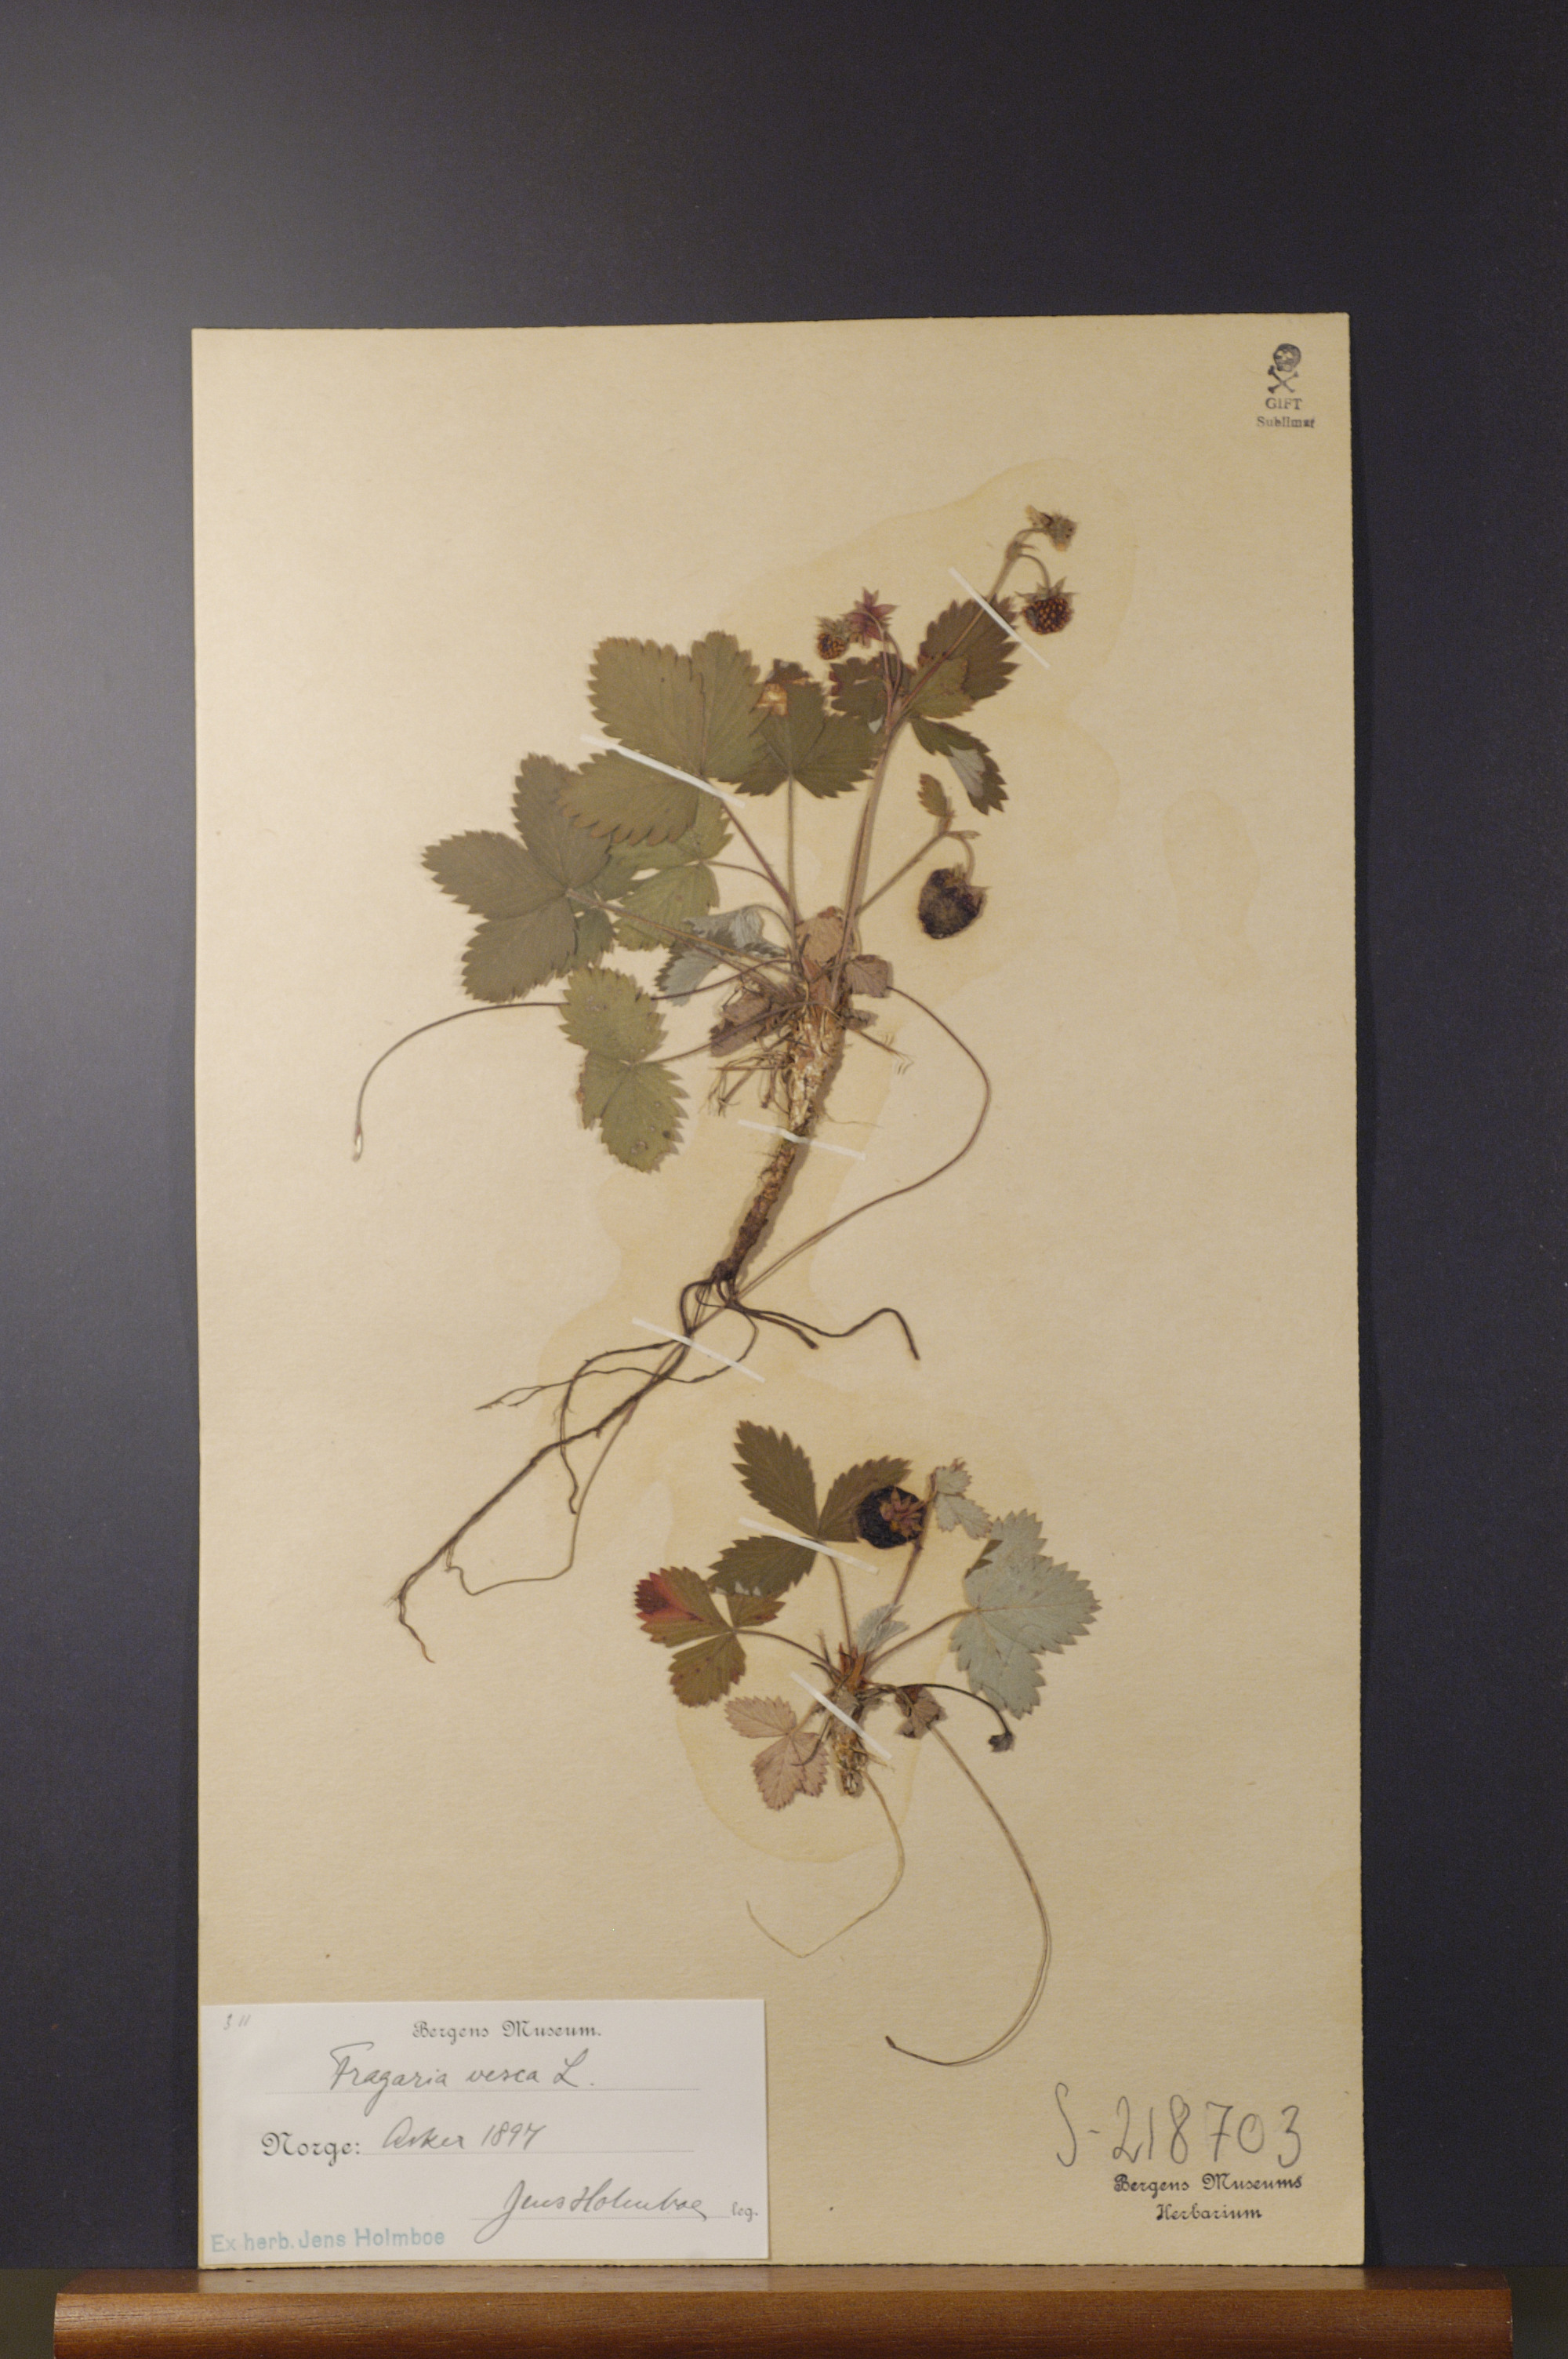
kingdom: Plantae
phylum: Tracheophyta
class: Magnoliopsida
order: Rosales
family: Rosaceae
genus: Fragaria
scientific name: Fragaria vesca
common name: Wild strawberry
